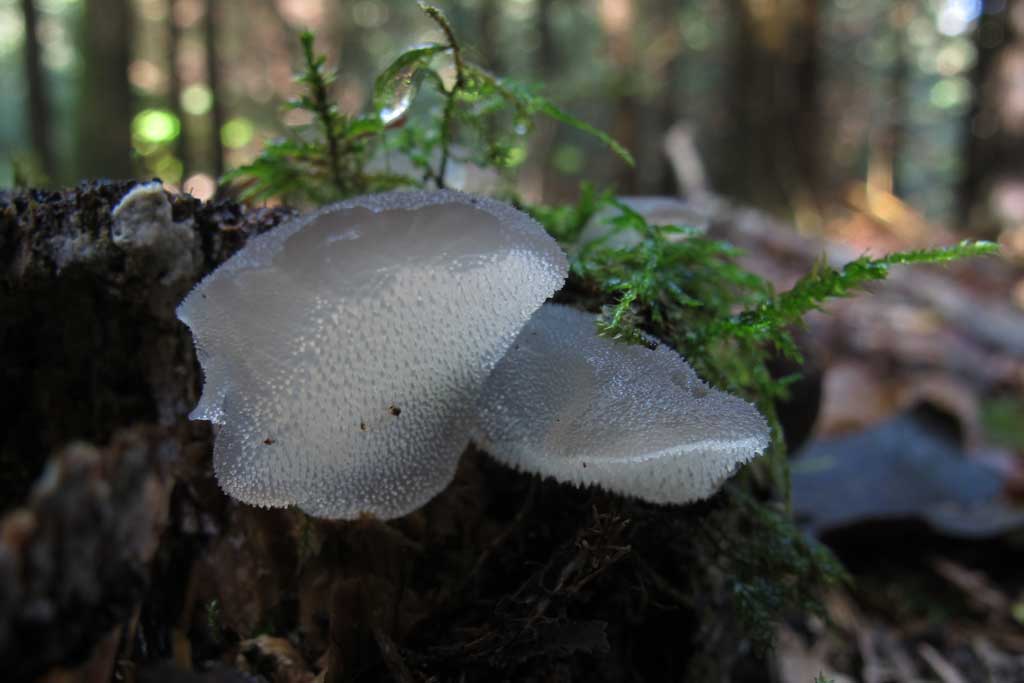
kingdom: Fungi
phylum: Basidiomycota
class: Agaricomycetes
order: Auriculariales
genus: Pseudohydnum
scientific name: Pseudohydnum gelatinosum
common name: bævretand
